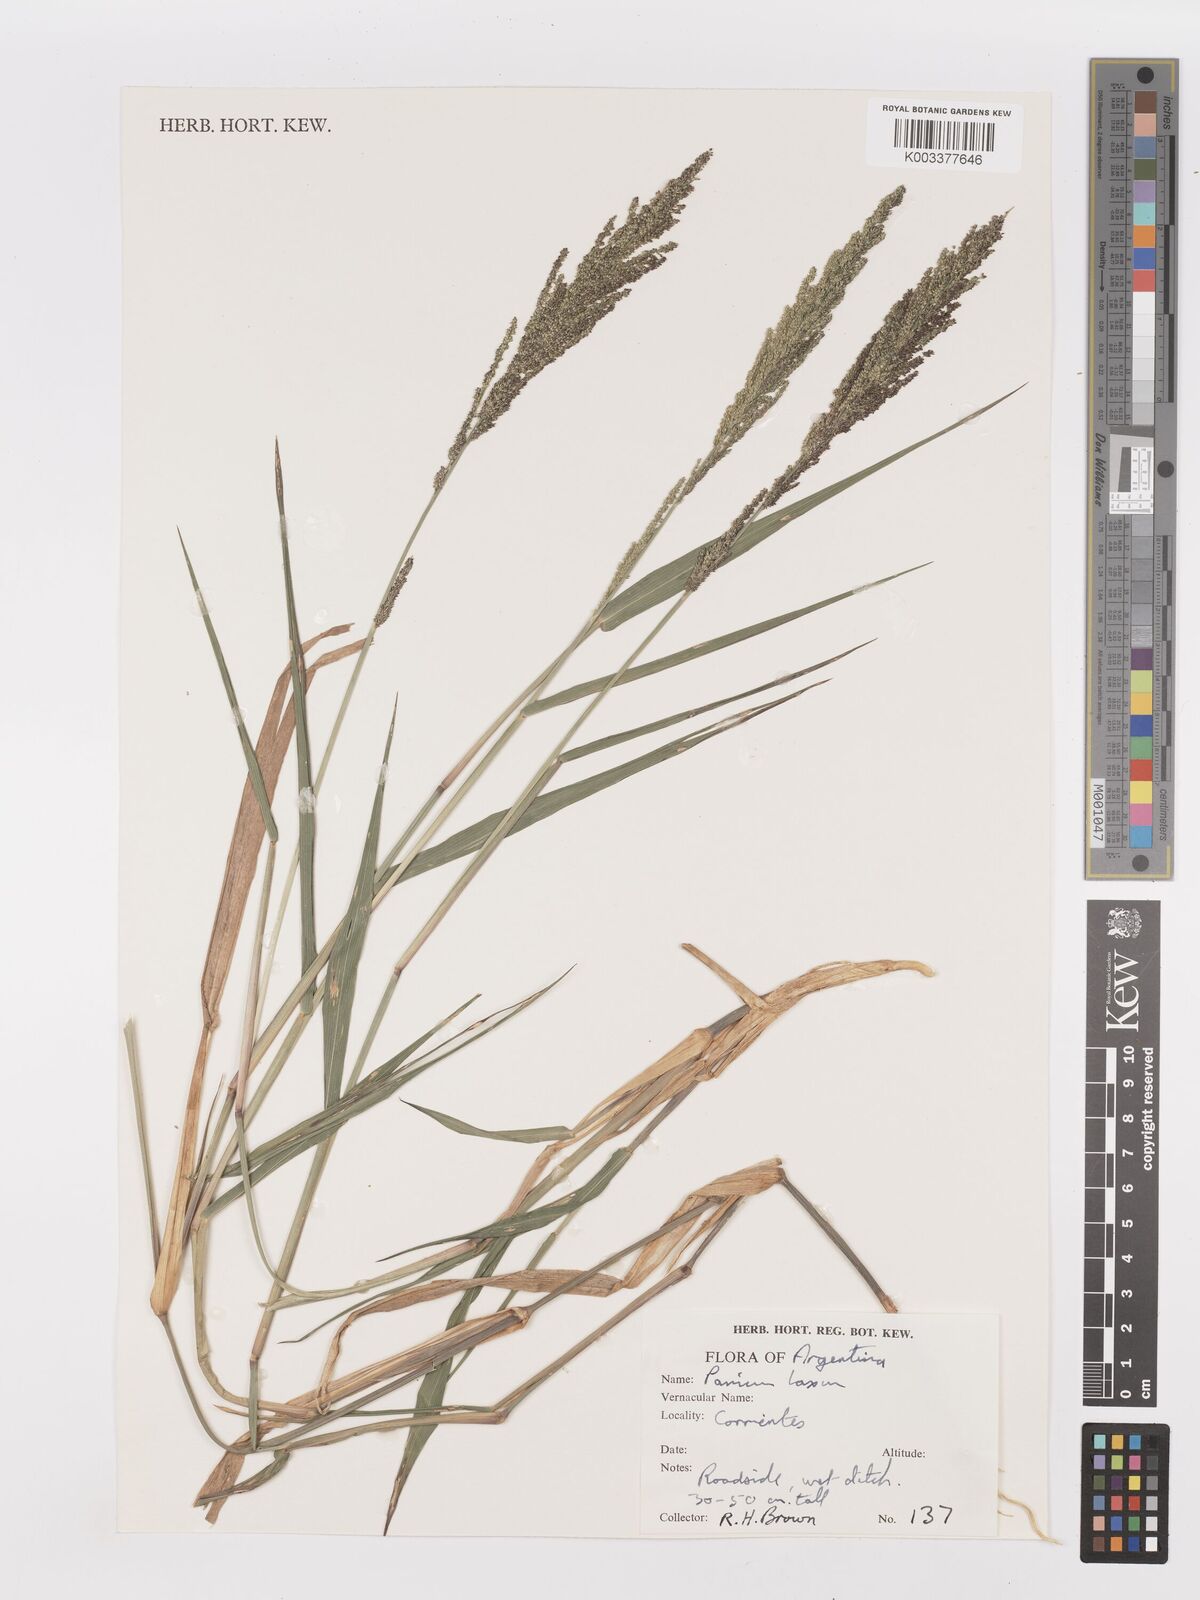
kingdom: Plantae
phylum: Tracheophyta
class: Liliopsida
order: Poales
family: Poaceae
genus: Steinchisma
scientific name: Steinchisma laxum
